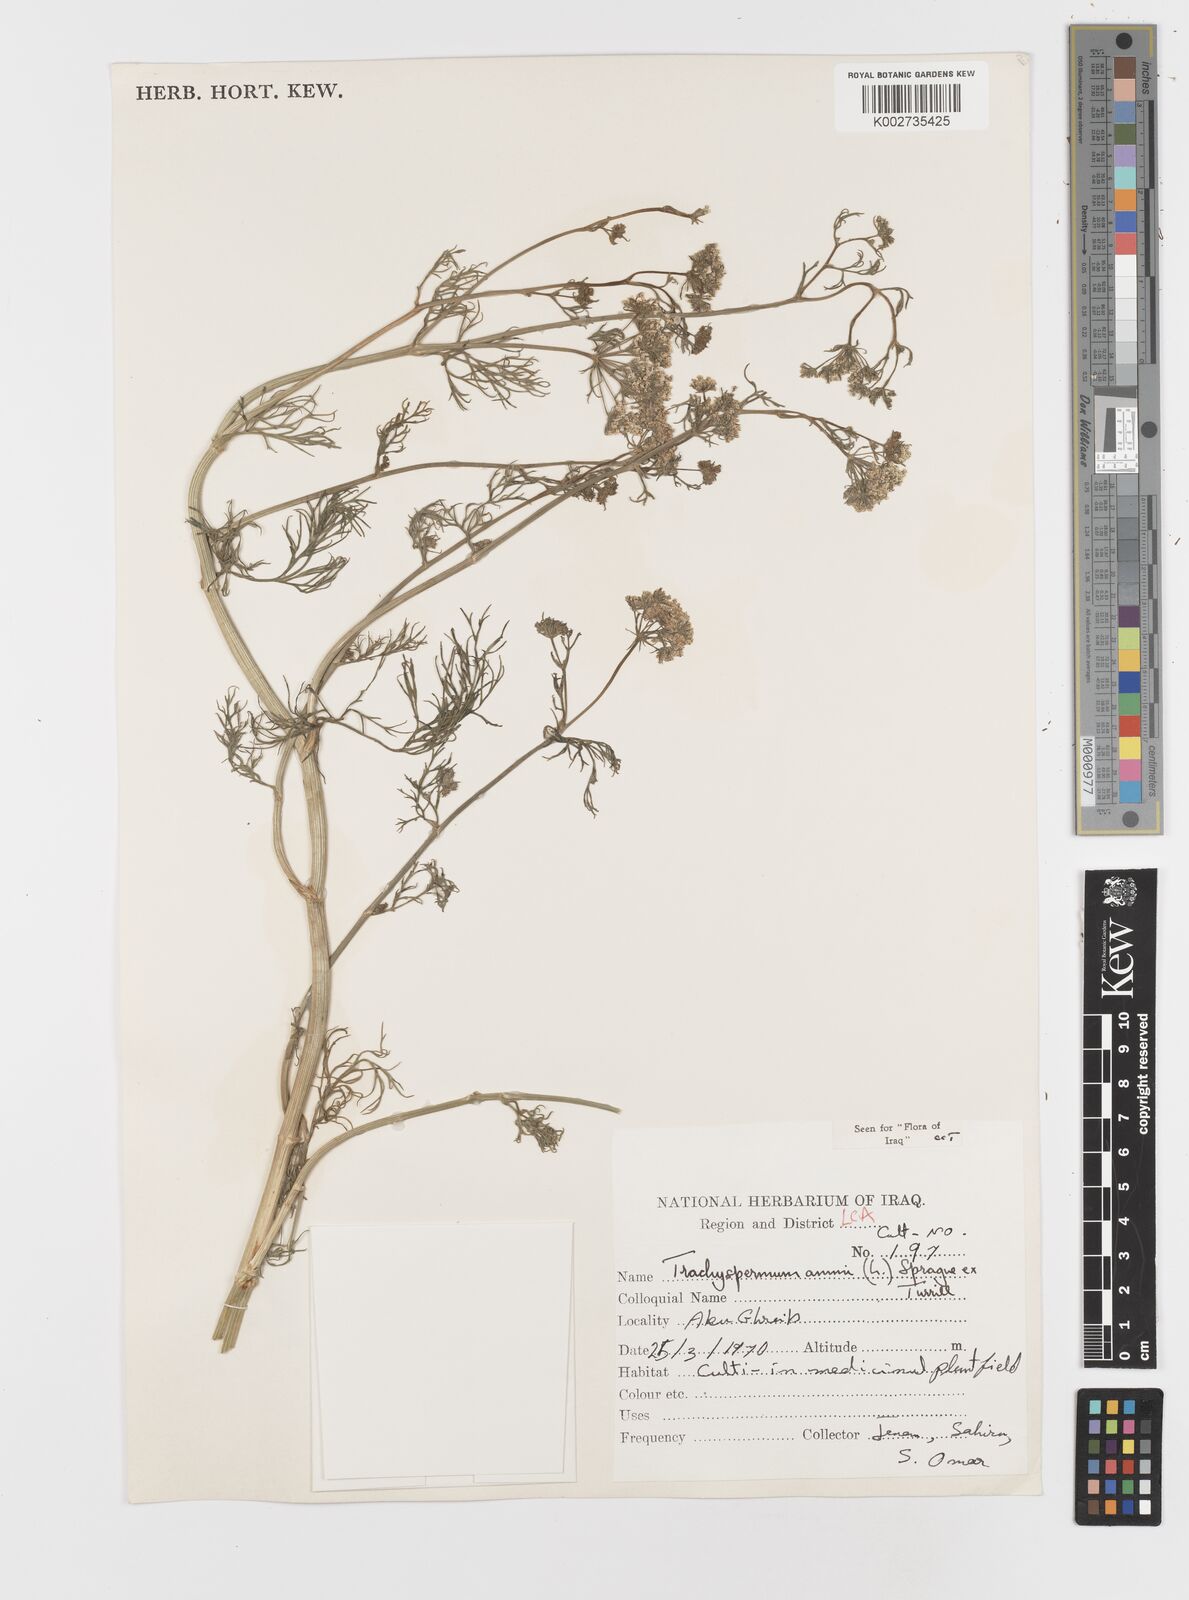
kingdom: Plantae
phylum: Tracheophyta
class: Magnoliopsida
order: Apiales
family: Apiaceae
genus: Trachyspermum
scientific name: Trachyspermum ammi
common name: Ajowan
